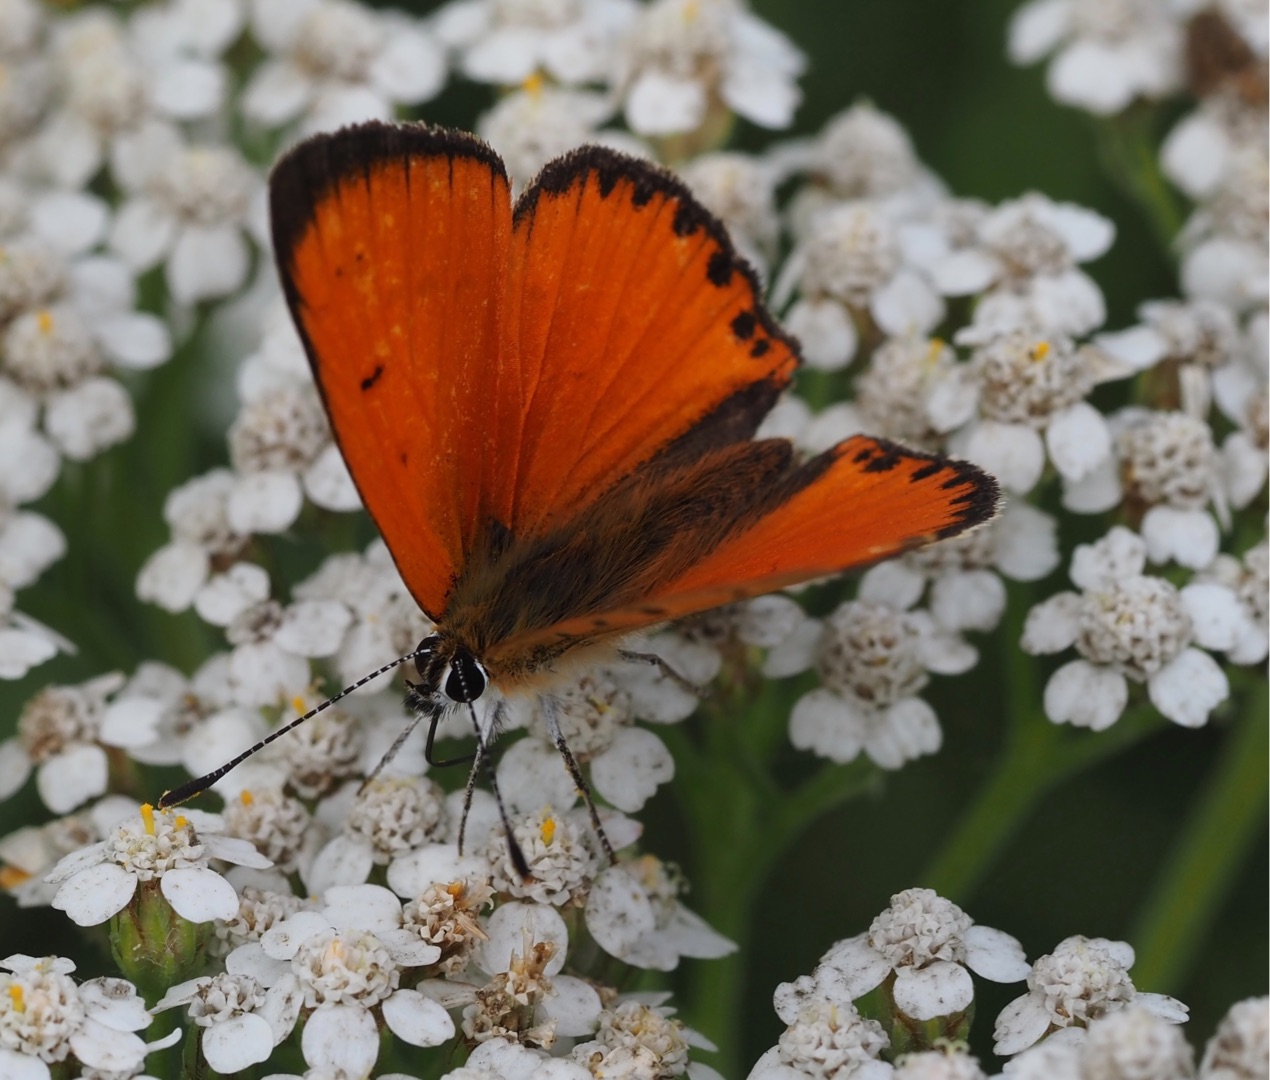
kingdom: Animalia
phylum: Arthropoda
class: Insecta
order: Lepidoptera
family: Lycaenidae
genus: Lycaena
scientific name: Lycaena virgaureae
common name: Dukatsommerfugl
